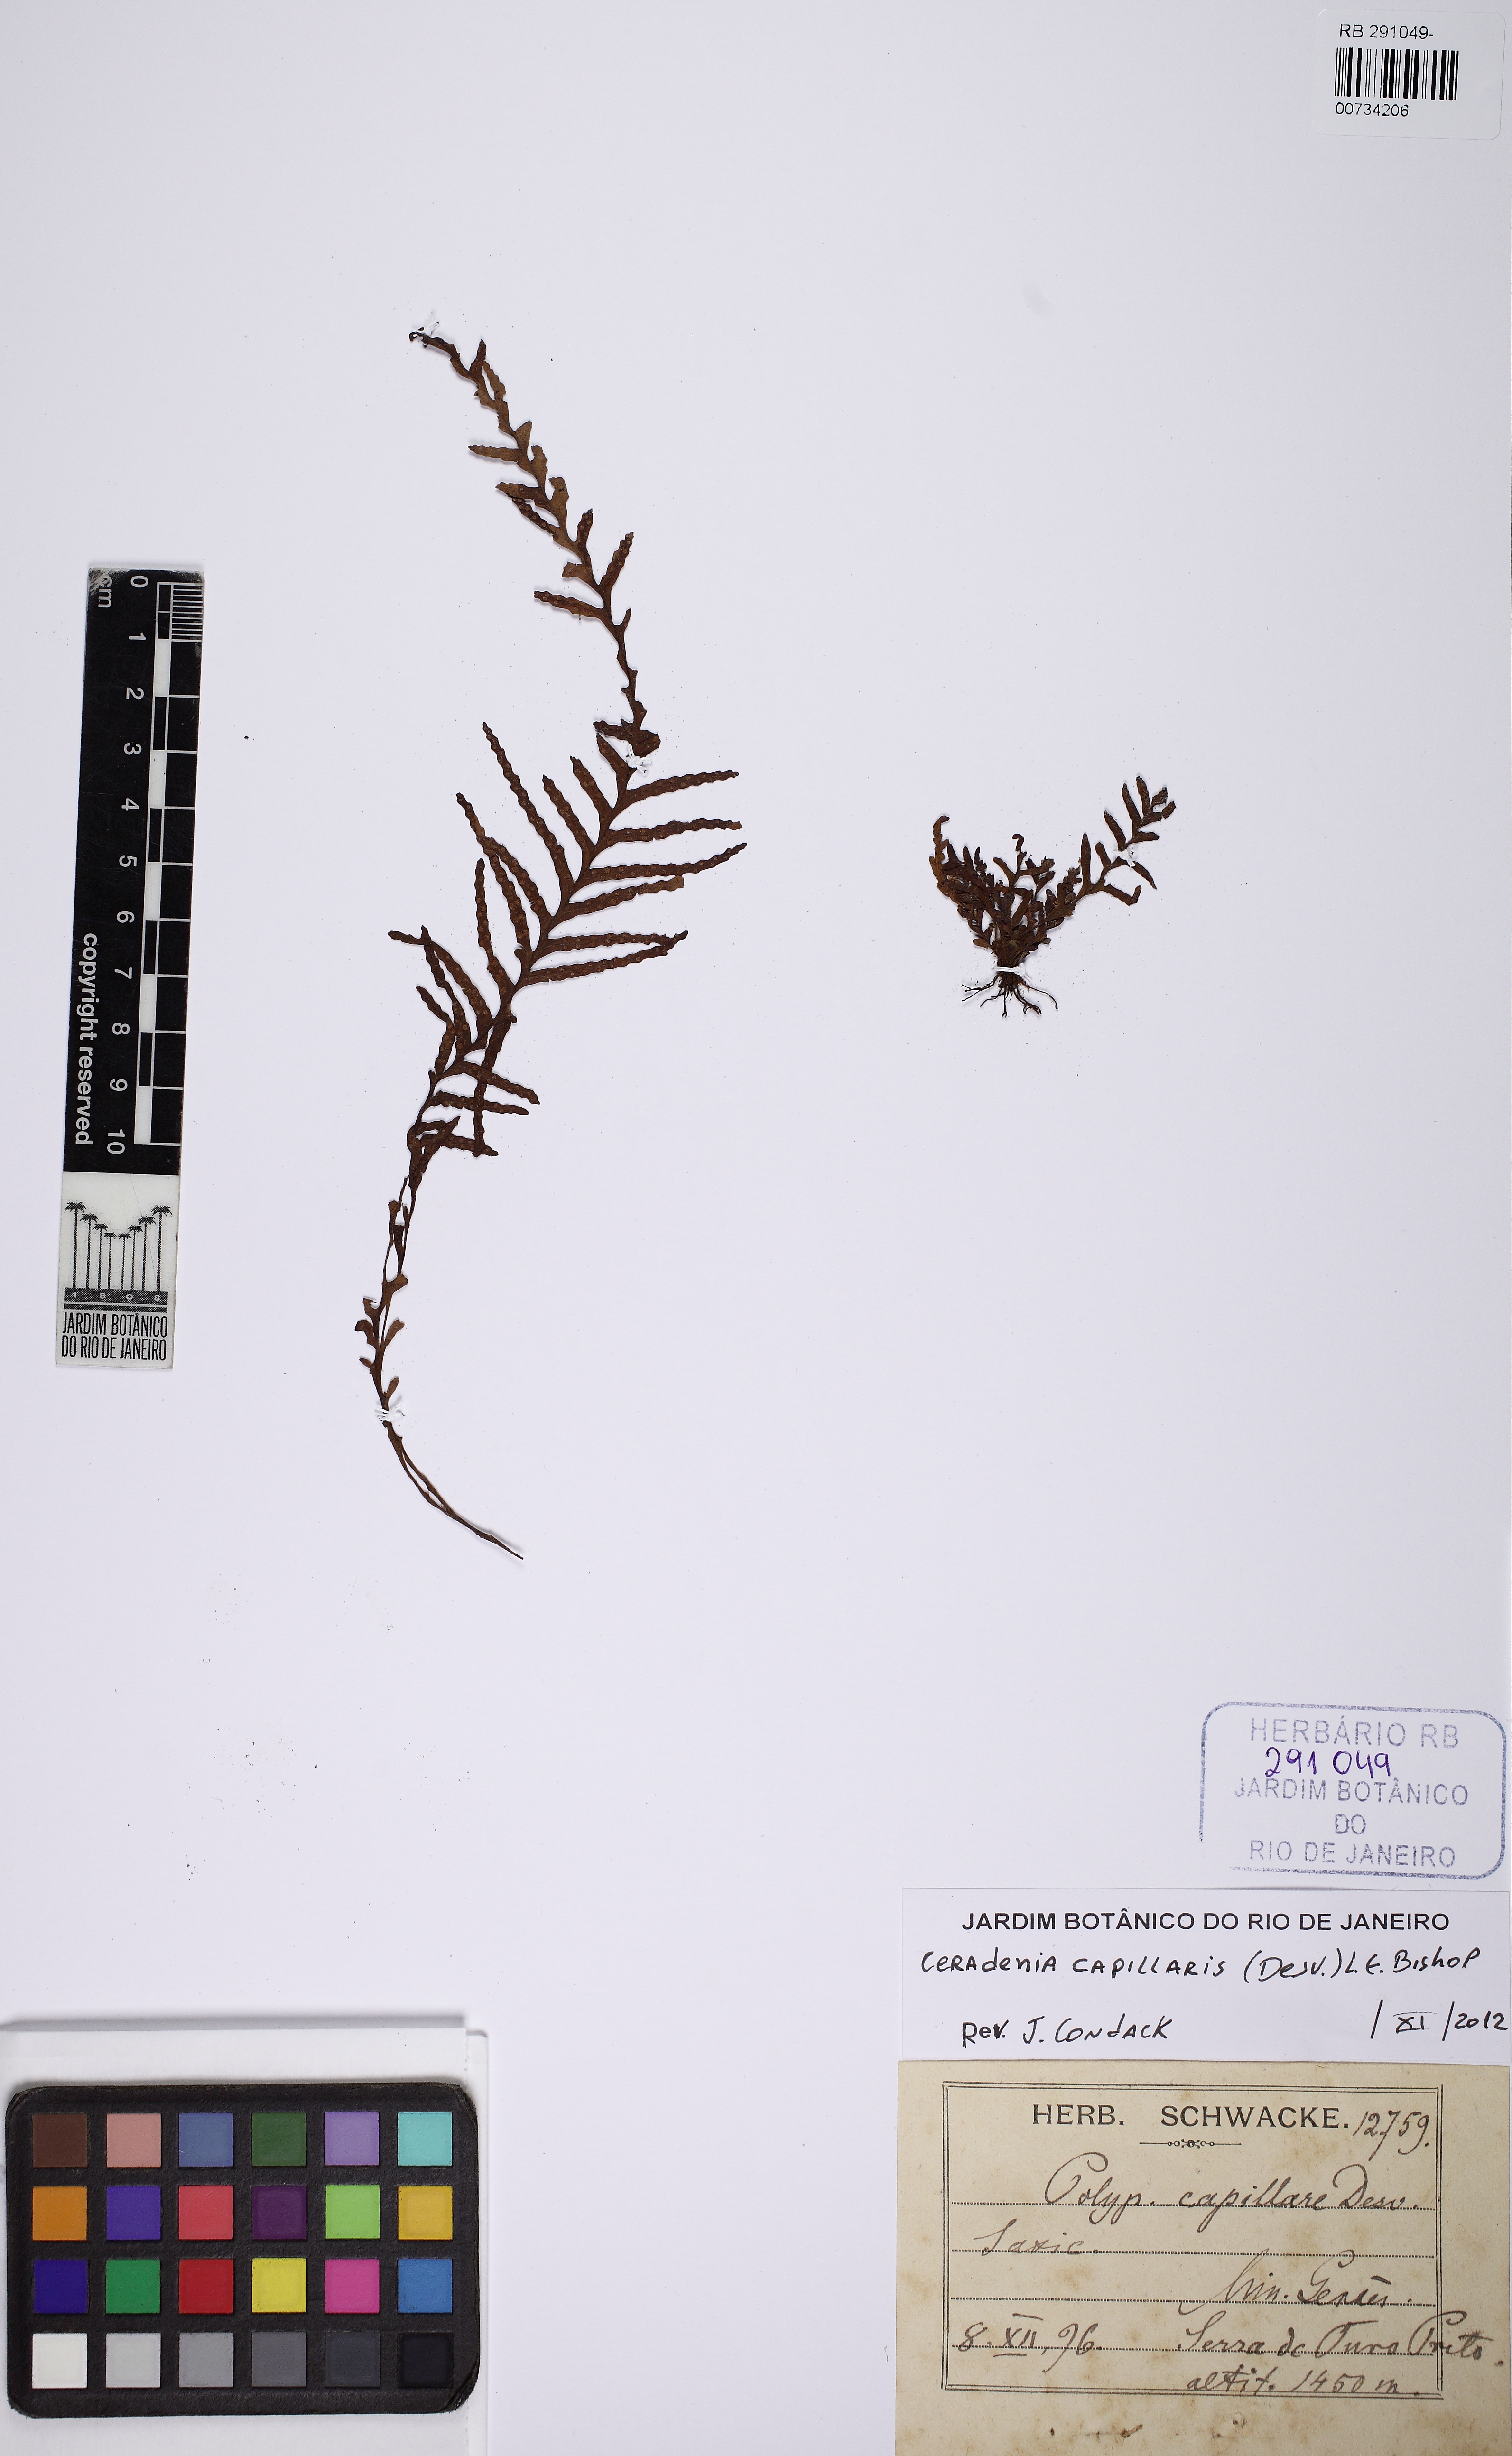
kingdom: Plantae
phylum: Tracheophyta
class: Polypodiopsida
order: Polypodiales
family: Polypodiaceae
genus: Ceradenia
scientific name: Ceradenia capillaris
